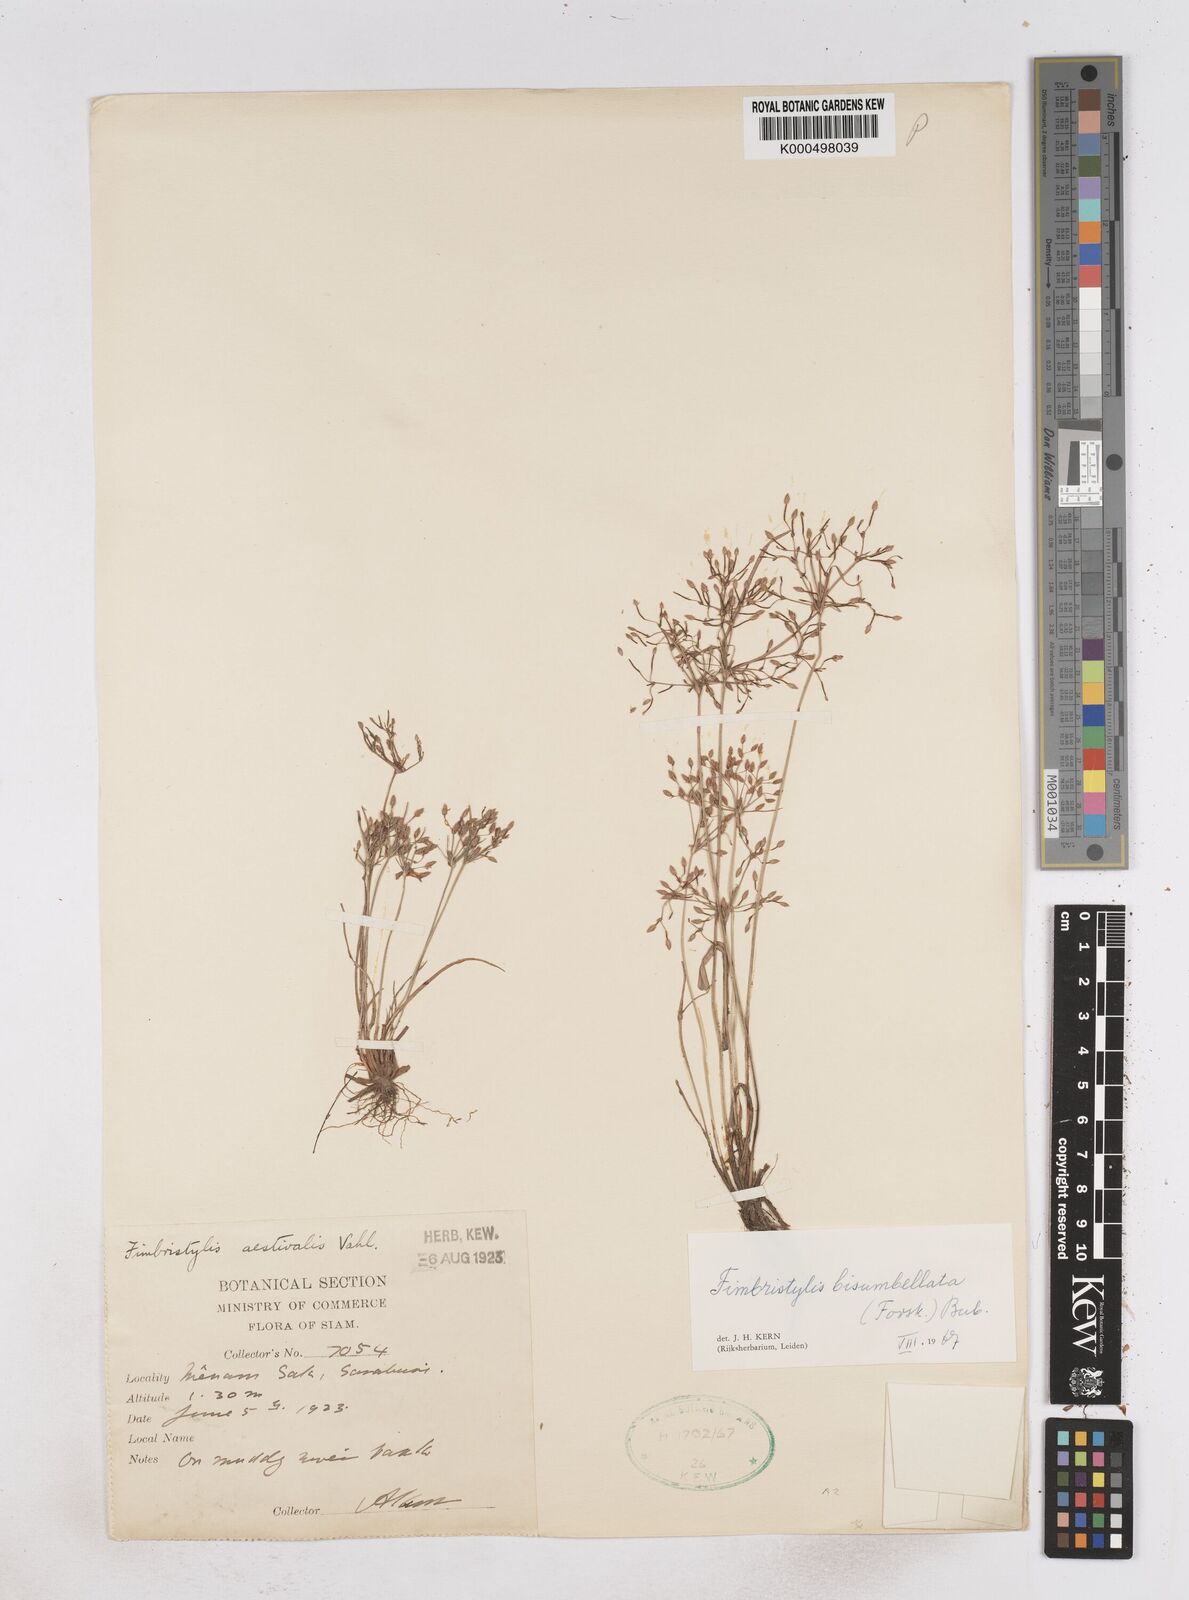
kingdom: Plantae
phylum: Tracheophyta
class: Liliopsida
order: Poales
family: Cyperaceae
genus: Fimbristylis
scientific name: Fimbristylis bisumbellata
